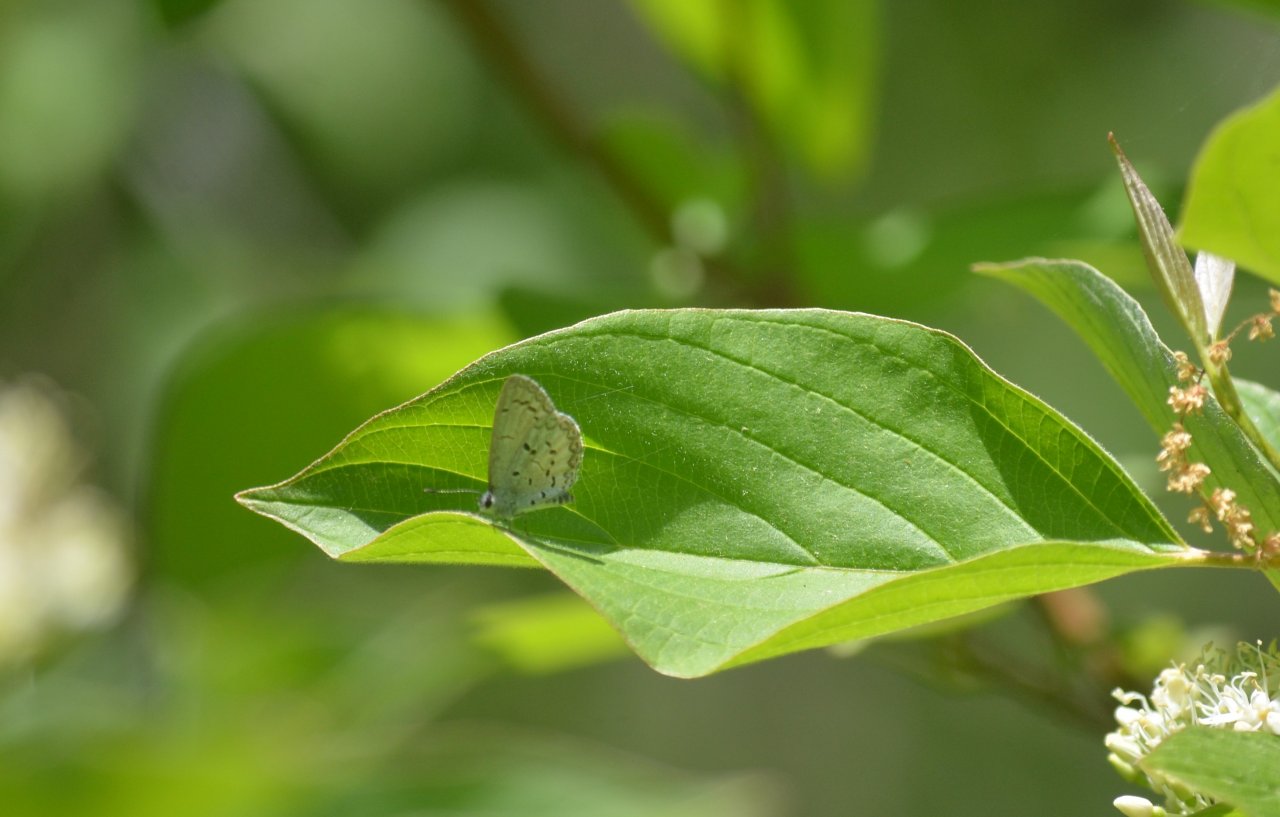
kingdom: Animalia
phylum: Arthropoda
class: Insecta
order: Lepidoptera
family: Lycaenidae
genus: Celastrina
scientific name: Celastrina lucia
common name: Northern Spring Azure
